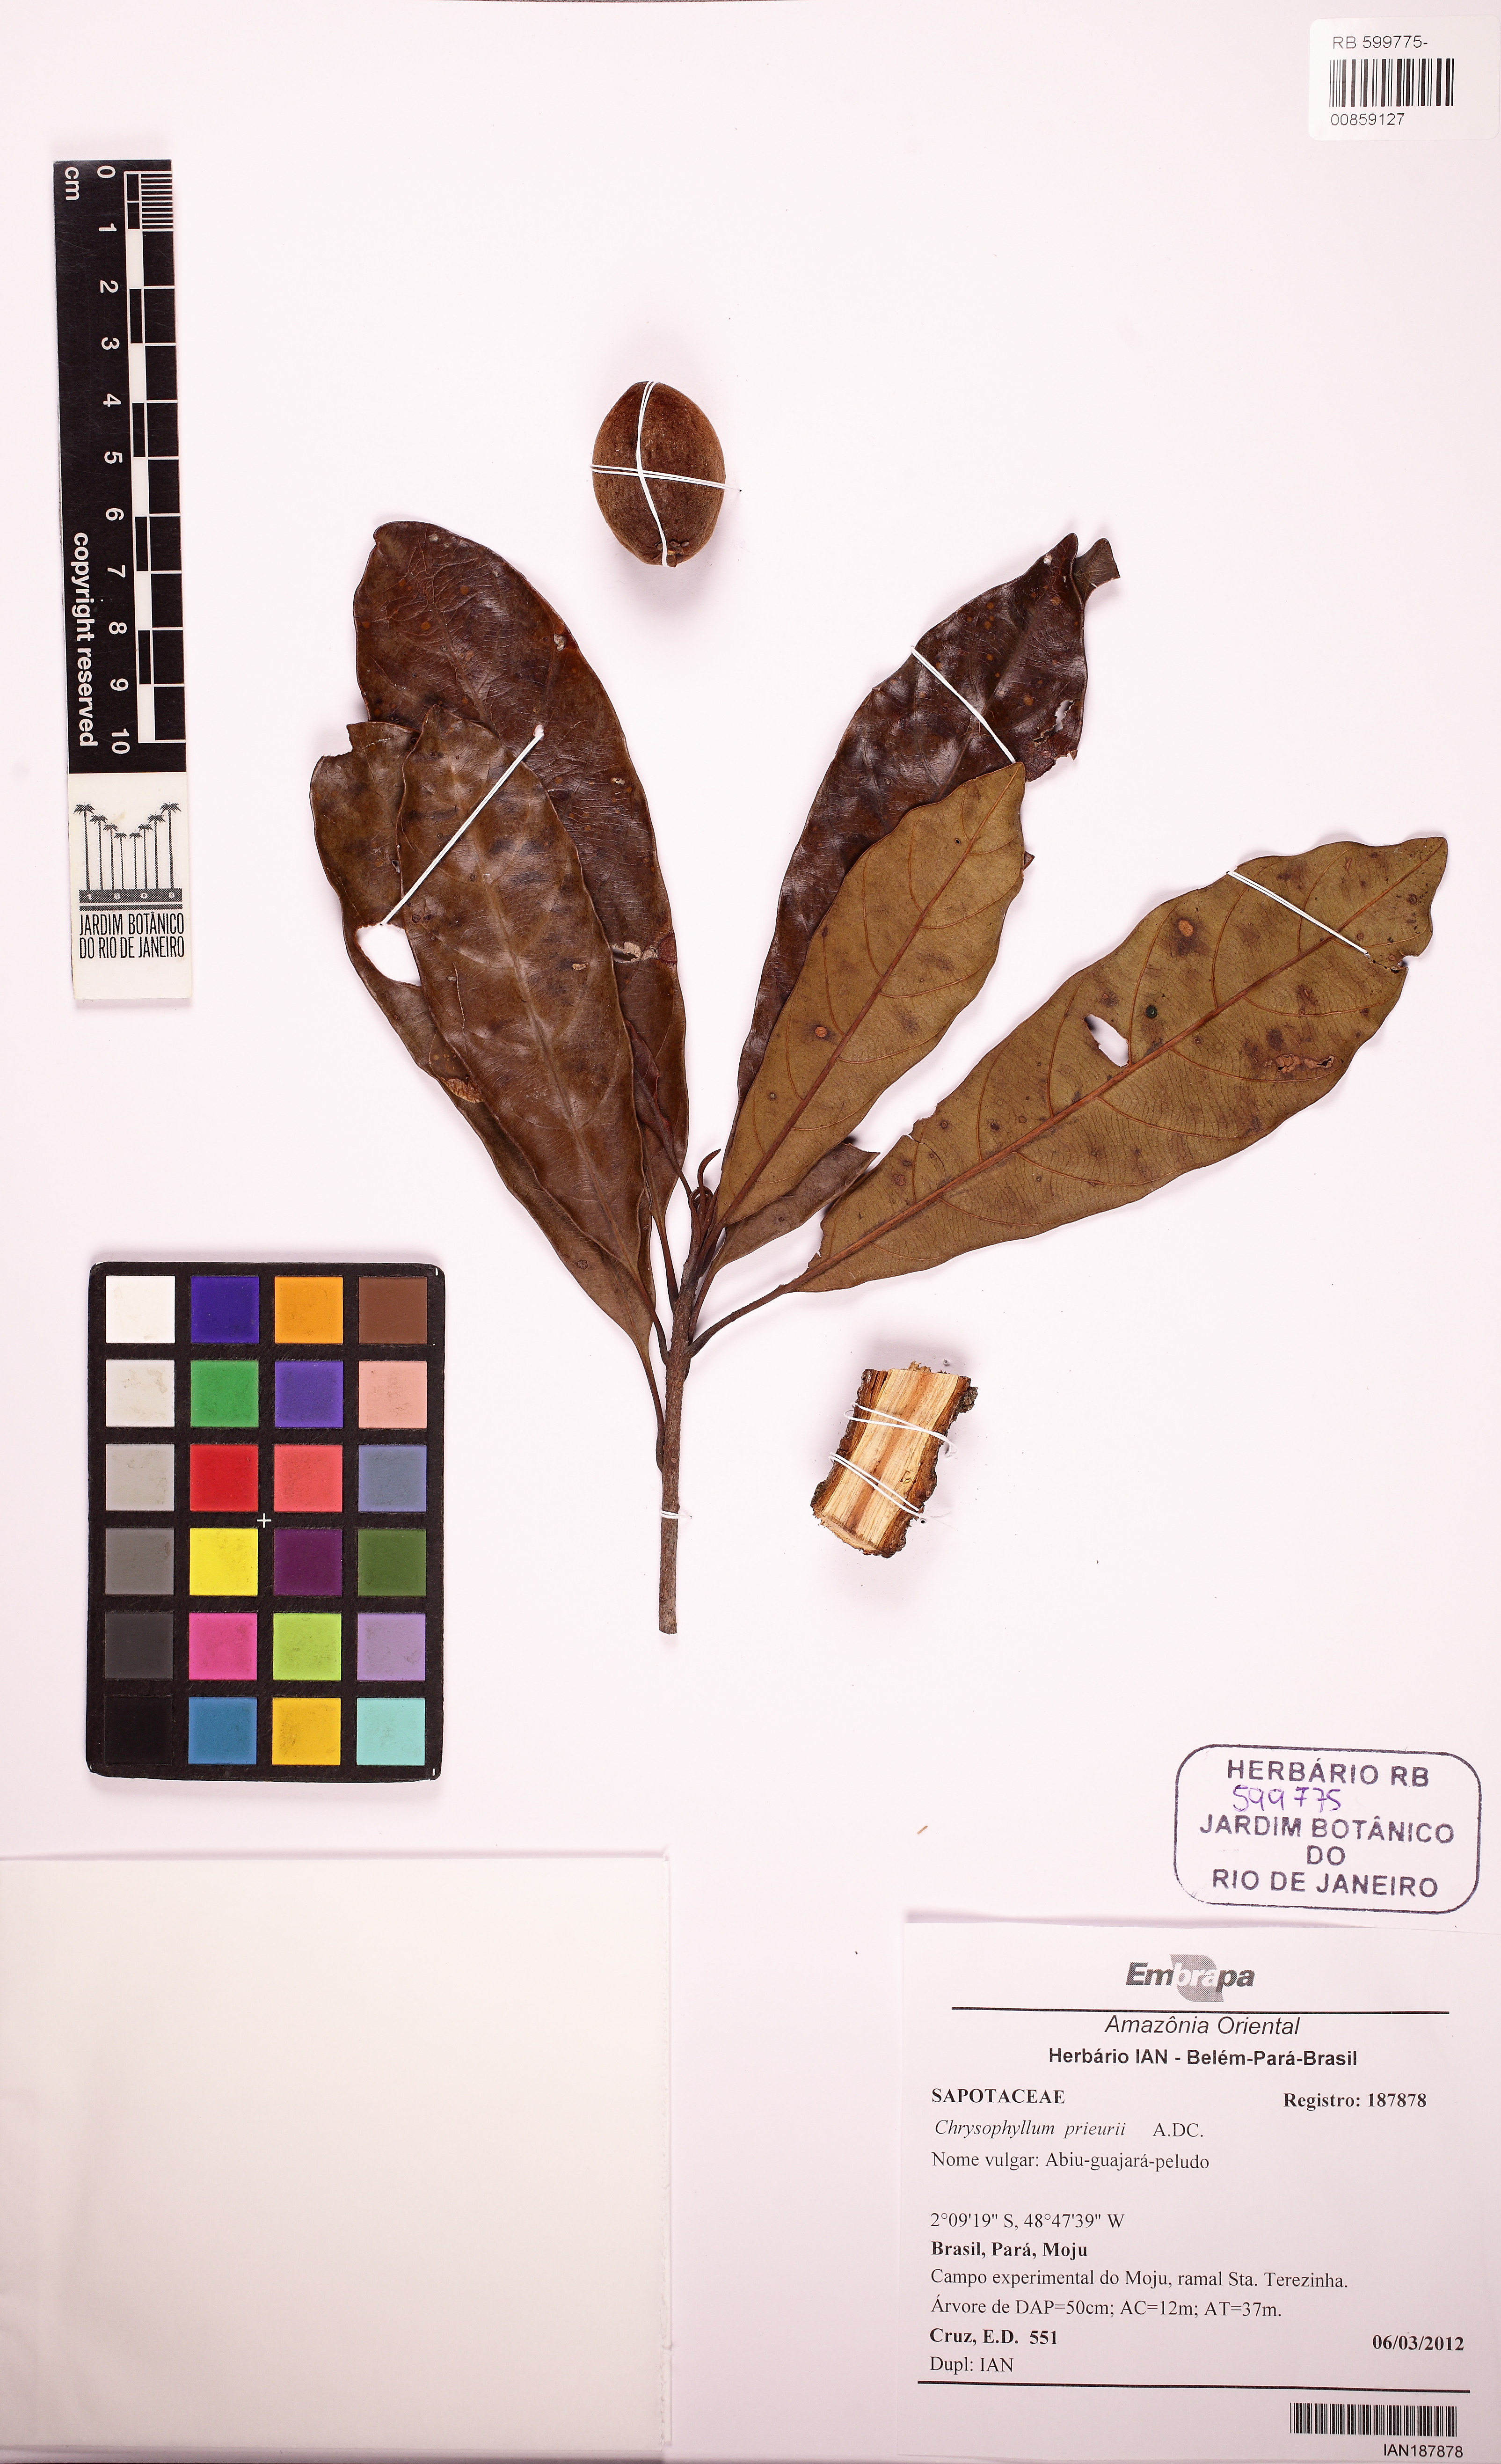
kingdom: Plantae
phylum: Tracheophyta
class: Magnoliopsida
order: Ericales
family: Sapotaceae
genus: Chrysophyllum
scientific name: Chrysophyllum prieurii
